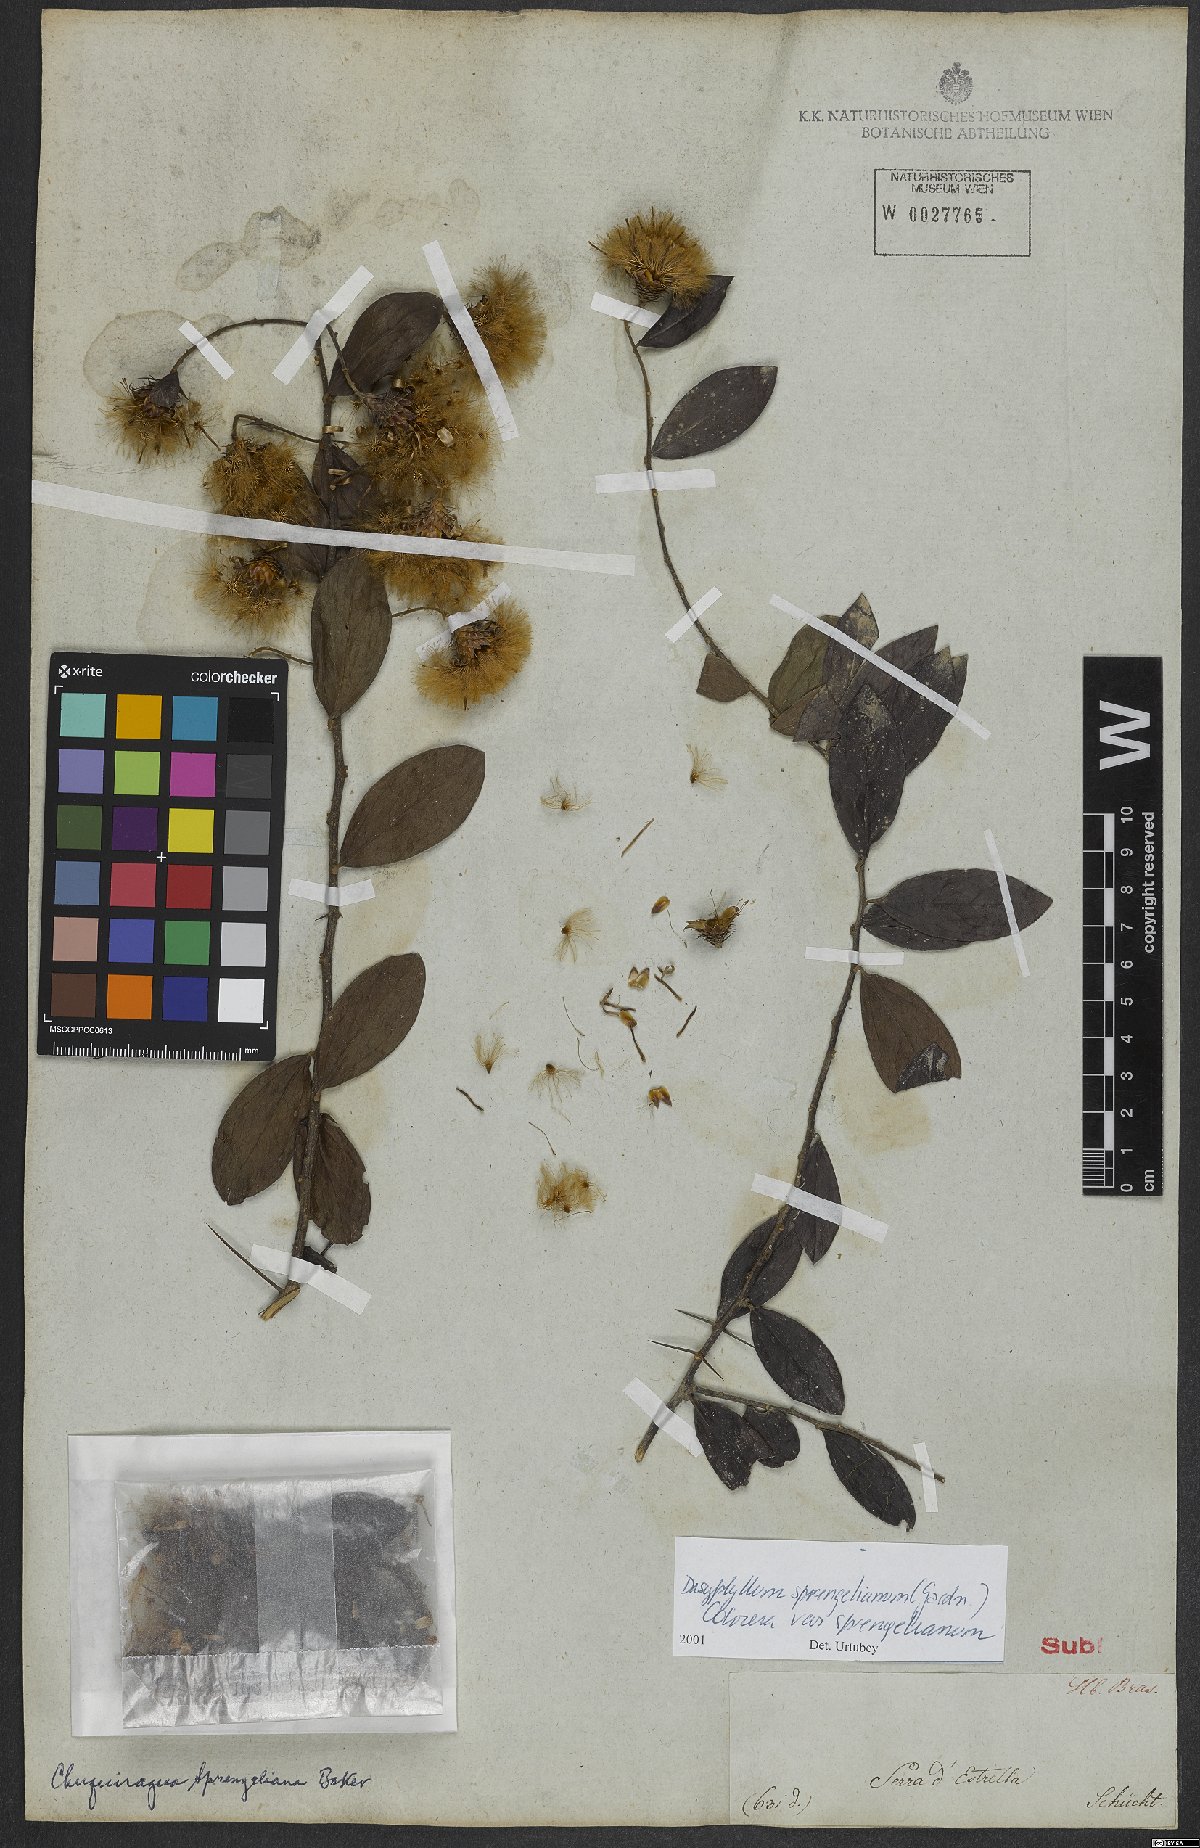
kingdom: Plantae
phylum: Tracheophyta
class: Magnoliopsida
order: Asterales
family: Asteraceae
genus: Dasyphyllum
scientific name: Dasyphyllum sprengelianum
